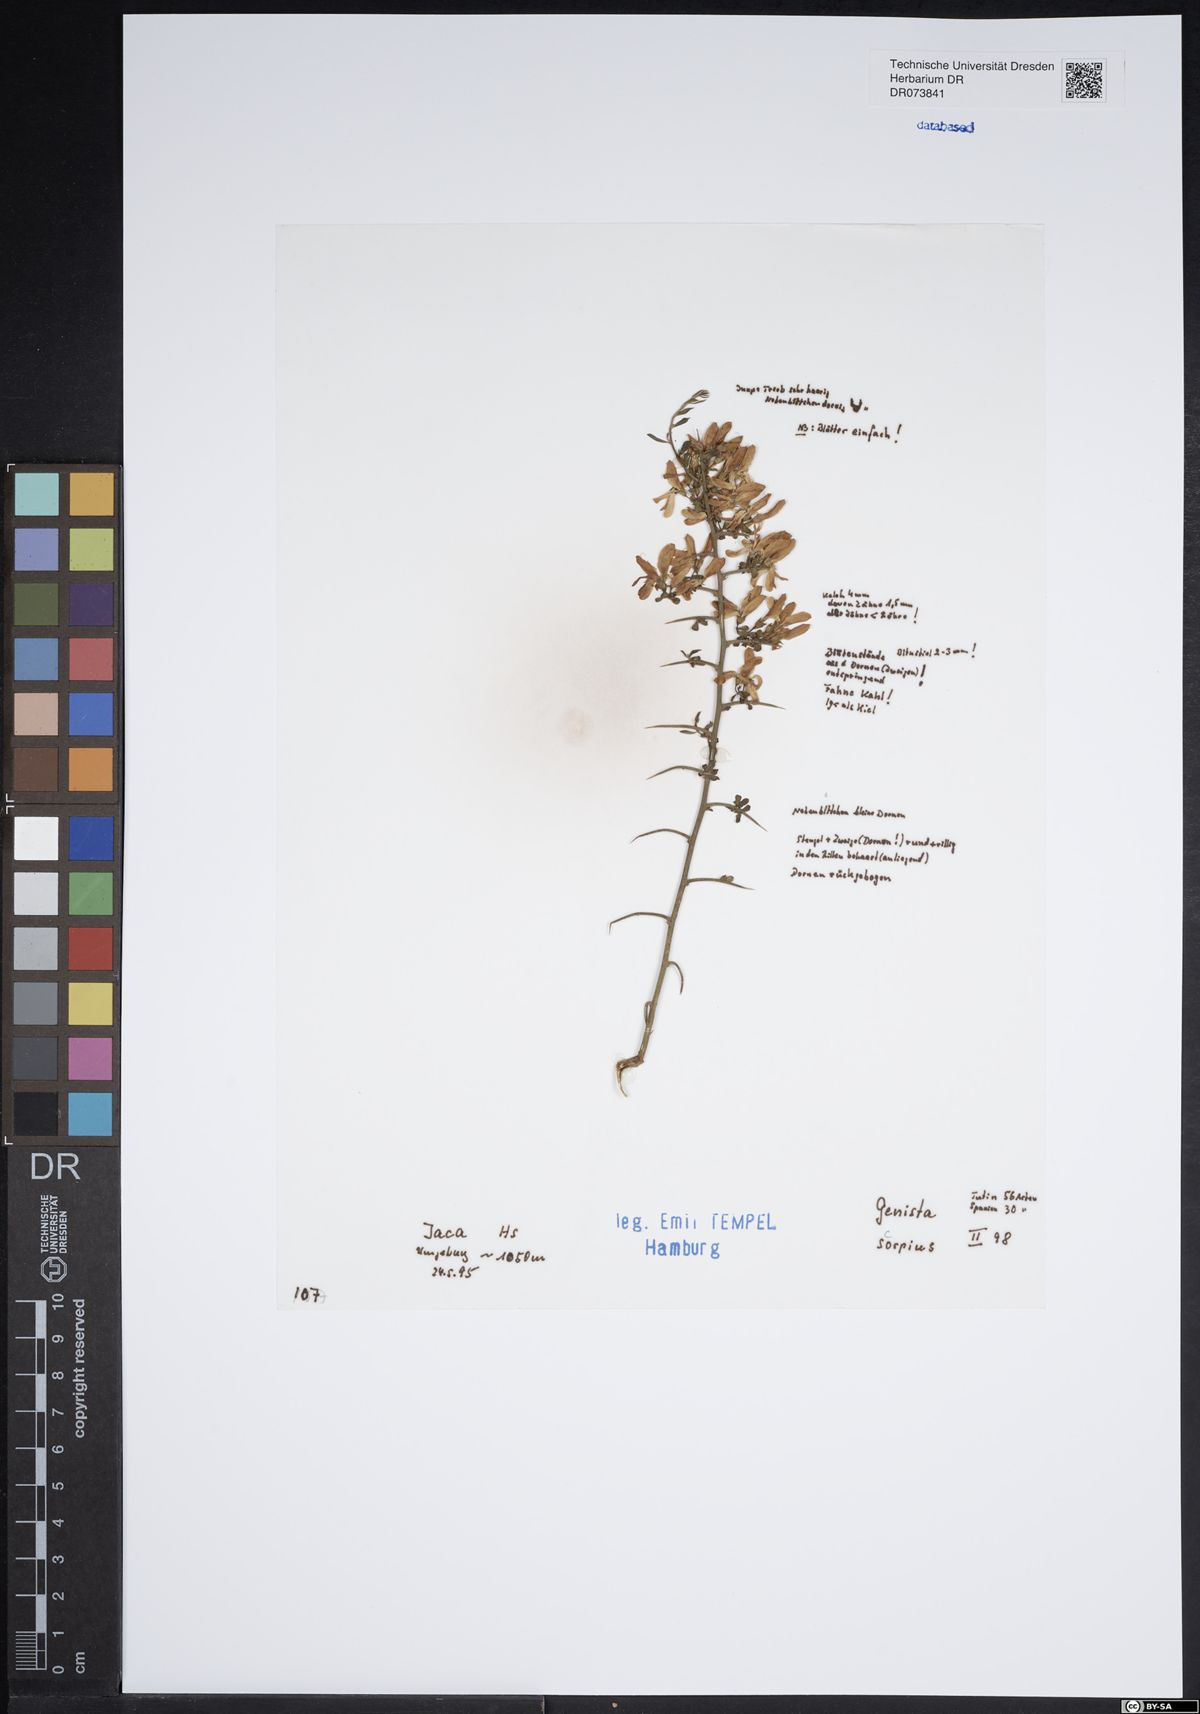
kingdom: Plantae
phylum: Tracheophyta
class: Magnoliopsida
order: Fabales
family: Fabaceae
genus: Genista
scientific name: Genista scorpius
